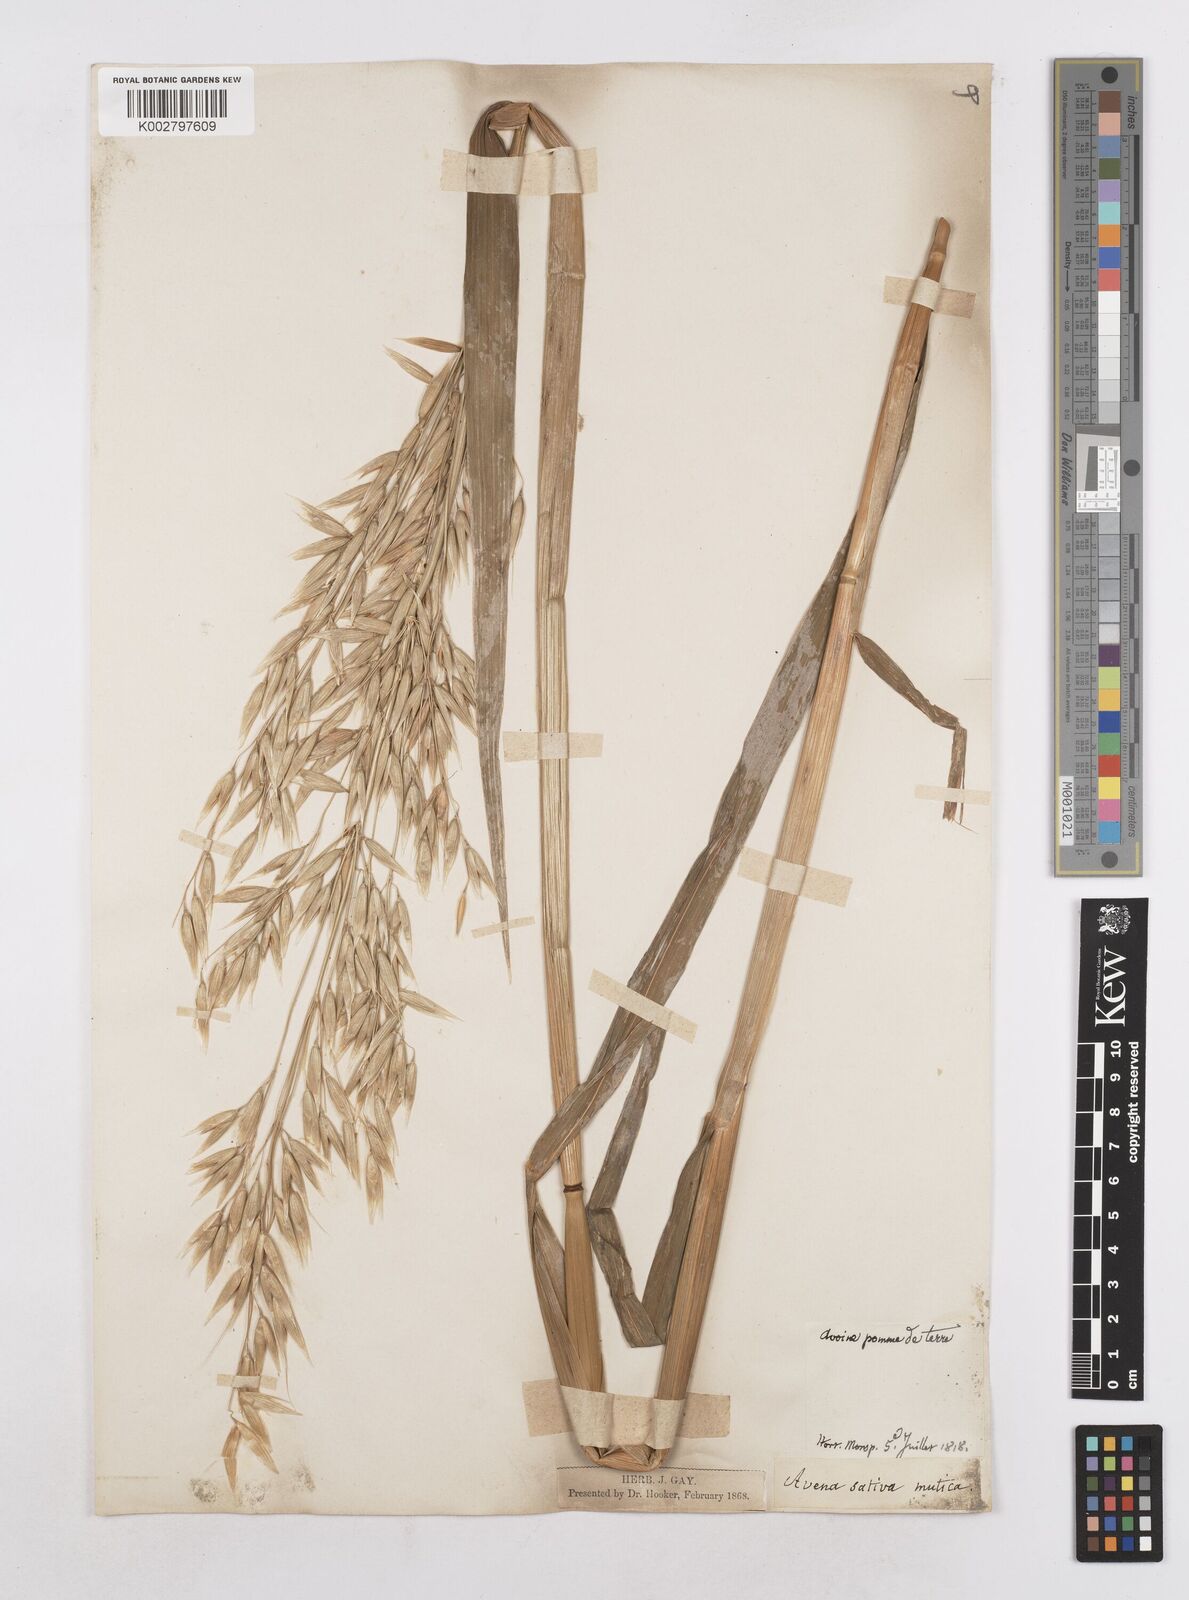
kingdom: Plantae
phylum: Tracheophyta
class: Liliopsida
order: Poales
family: Poaceae
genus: Avena
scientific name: Avena sativa
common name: Oat
